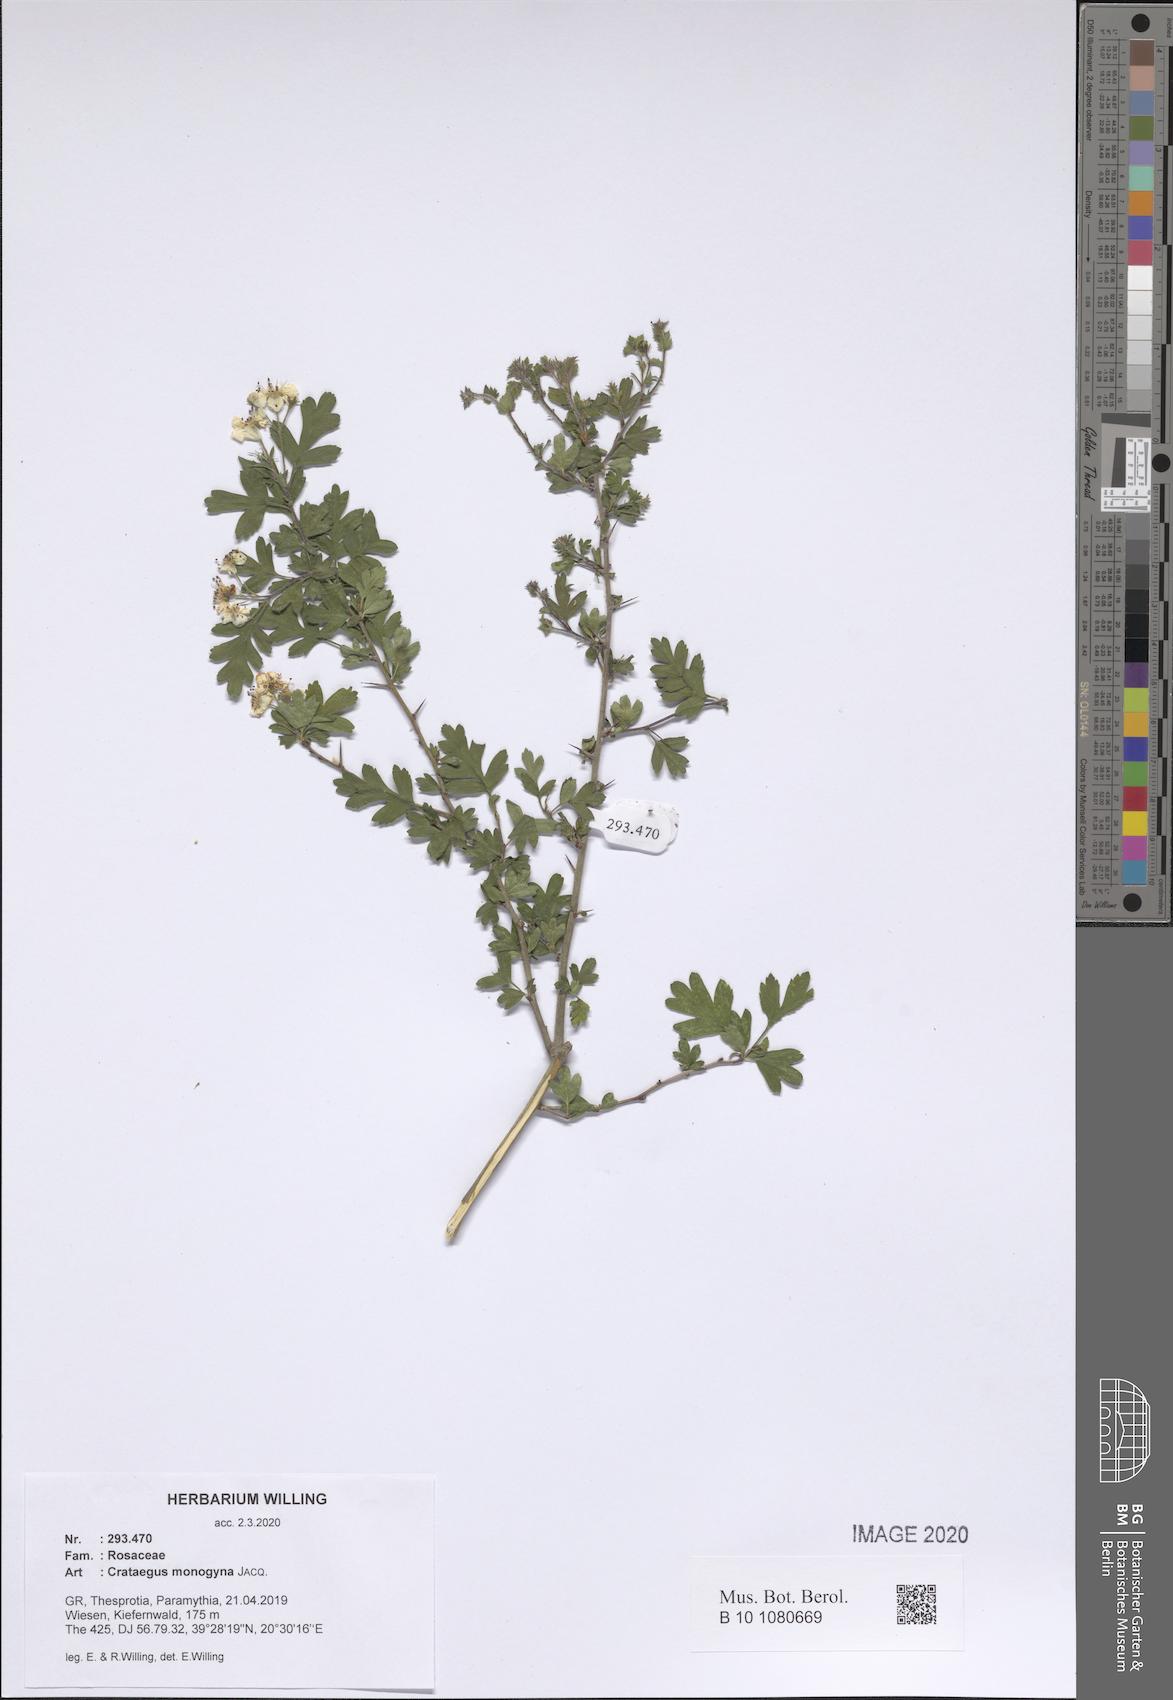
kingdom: Plantae
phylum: Tracheophyta
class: Magnoliopsida
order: Rosales
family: Rosaceae
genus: Crataegus
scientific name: Crataegus monogyna
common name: Hawthorn
